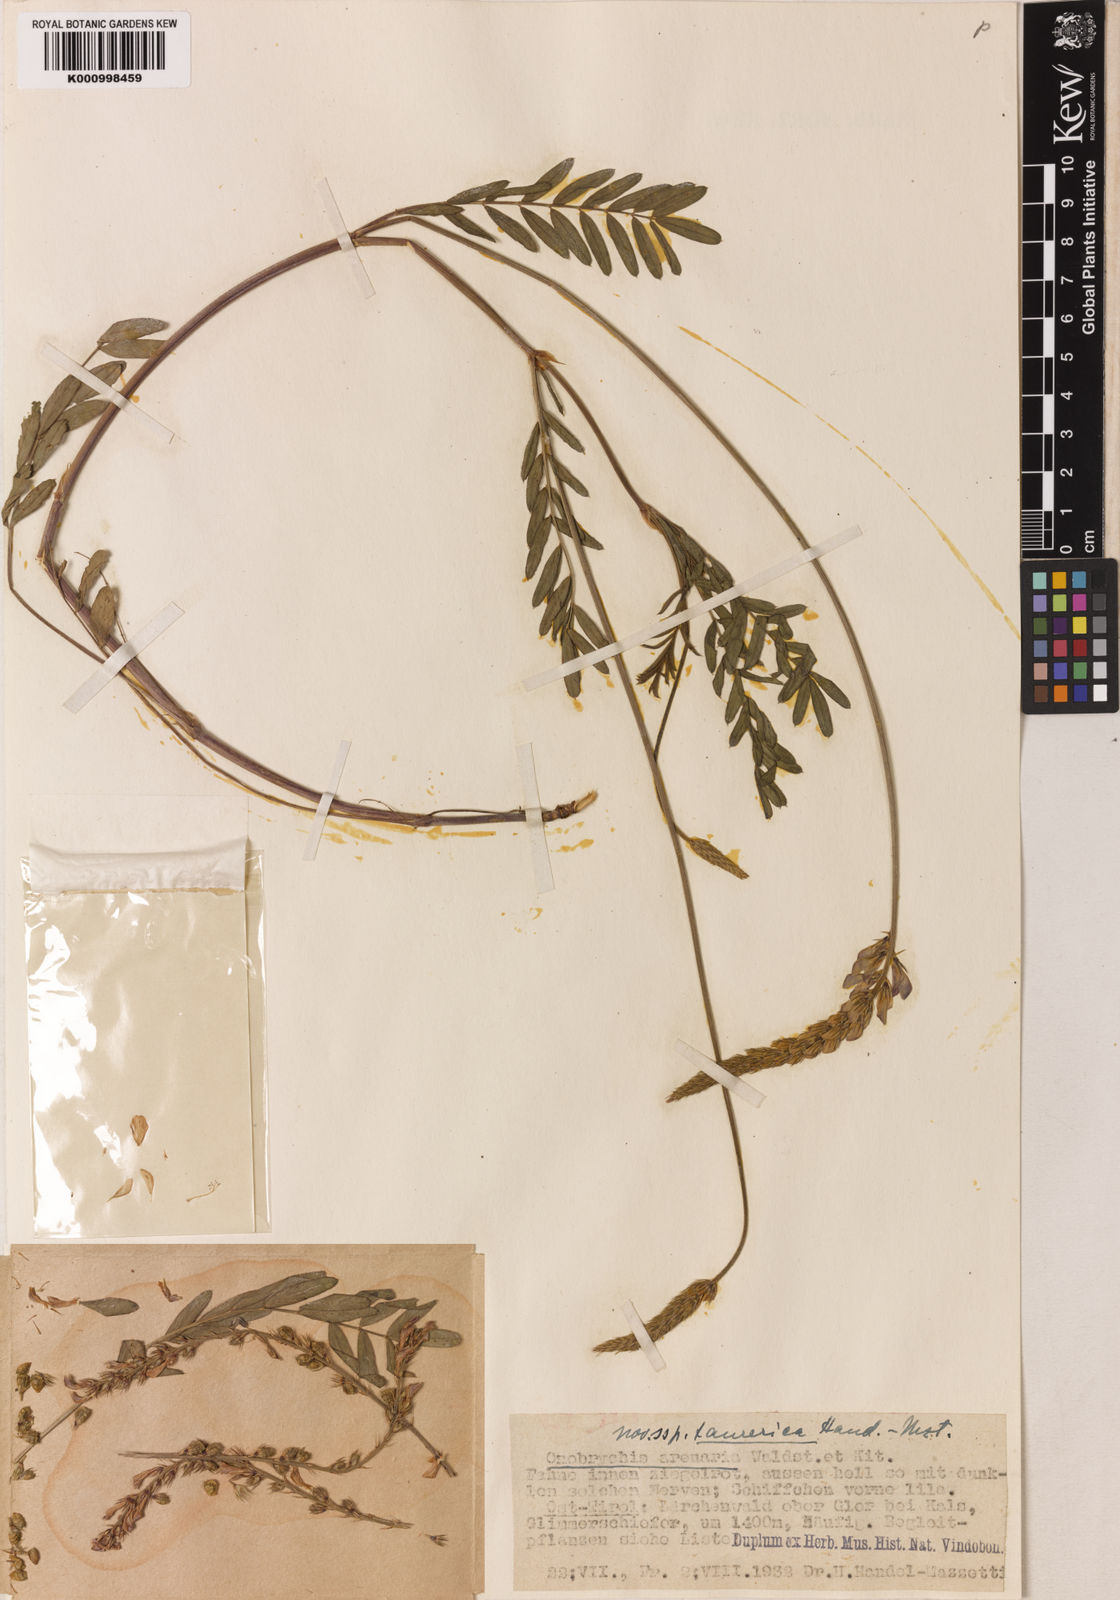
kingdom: Plantae
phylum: Tracheophyta
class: Magnoliopsida
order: Fabales
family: Fabaceae
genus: Onobrychis
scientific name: Onobrychis gracilis
